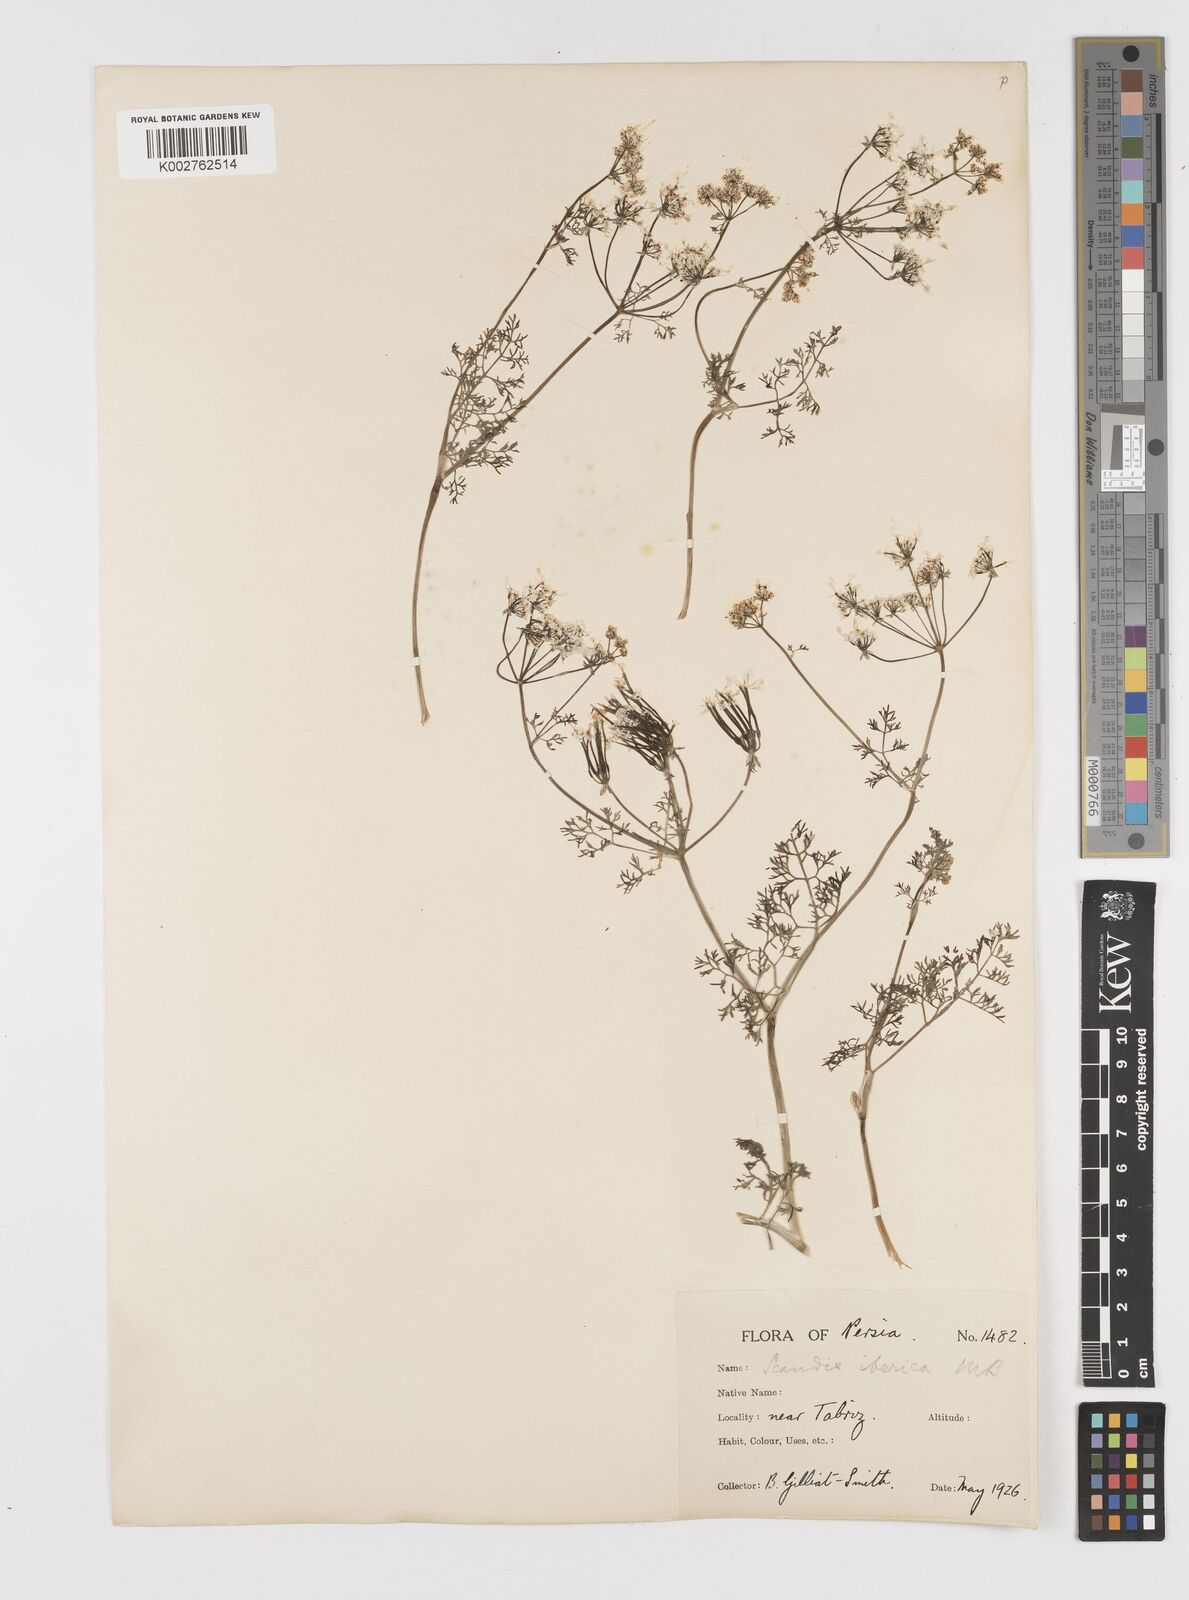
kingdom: Plantae
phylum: Tracheophyta
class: Magnoliopsida
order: Apiales
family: Apiaceae
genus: Scandix
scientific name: Scandix iberica
